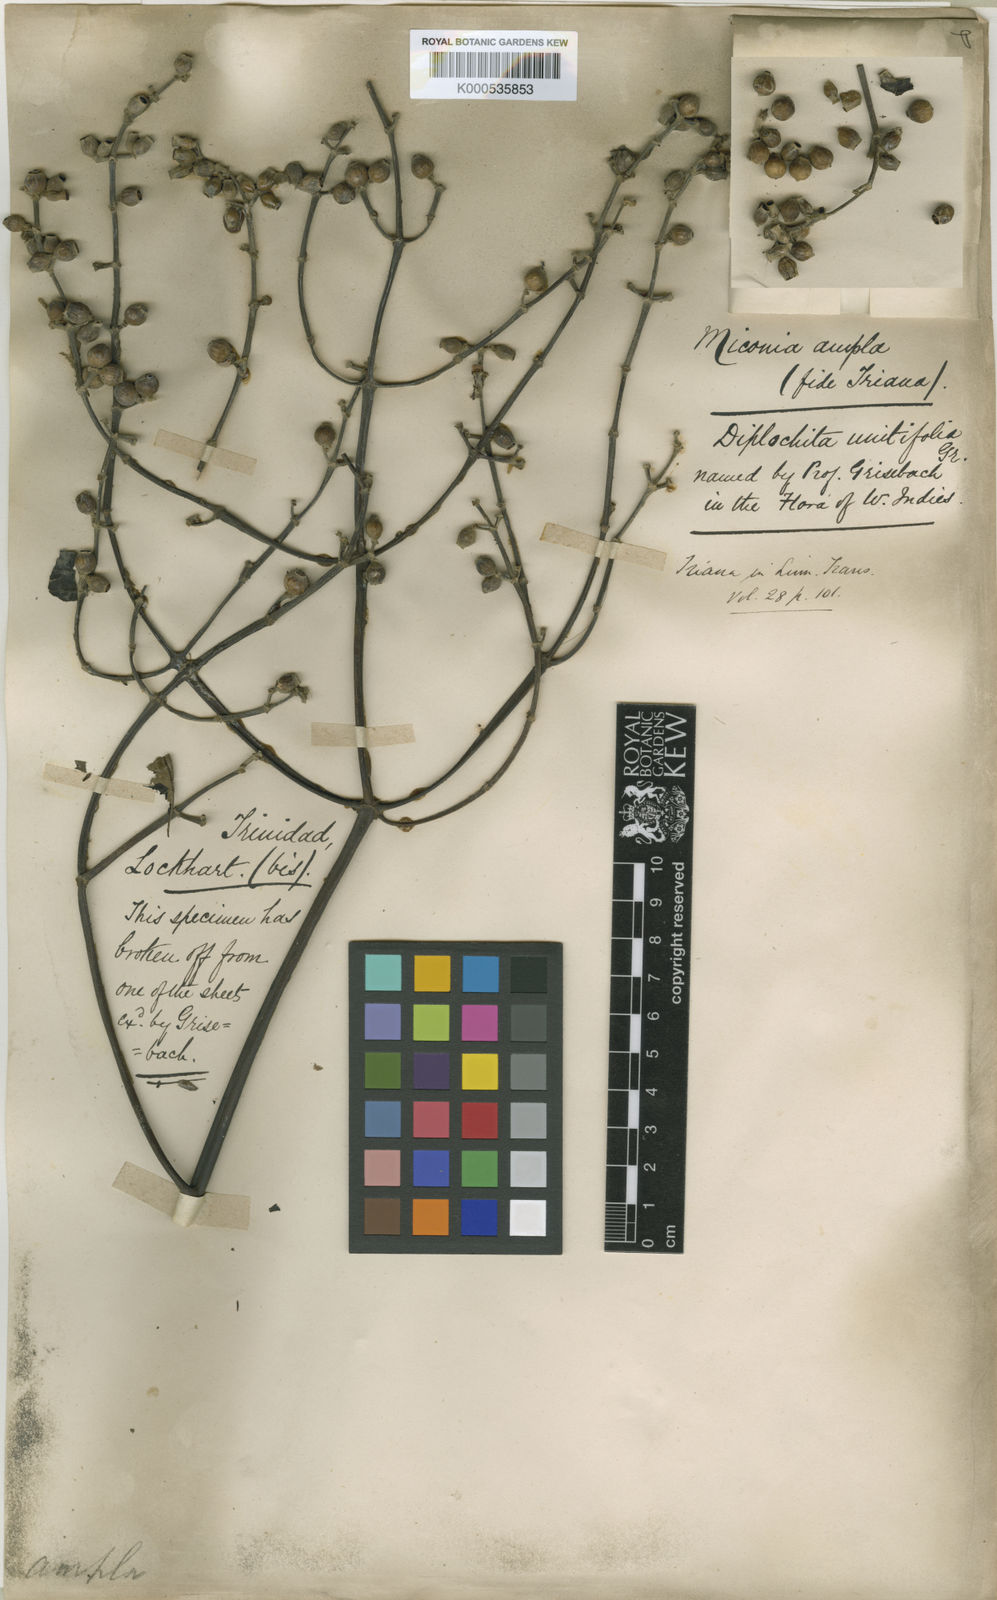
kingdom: Plantae
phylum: Tracheophyta
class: Magnoliopsida
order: Myrtales
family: Melastomataceae
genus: Miconia
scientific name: Miconia ampla
